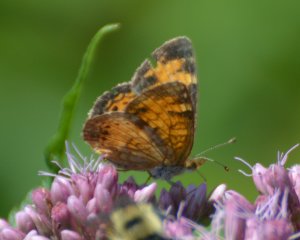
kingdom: Animalia
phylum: Arthropoda
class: Insecta
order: Lepidoptera
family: Nymphalidae
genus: Phyciodes
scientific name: Phyciodes tharos
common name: Northern Crescent
